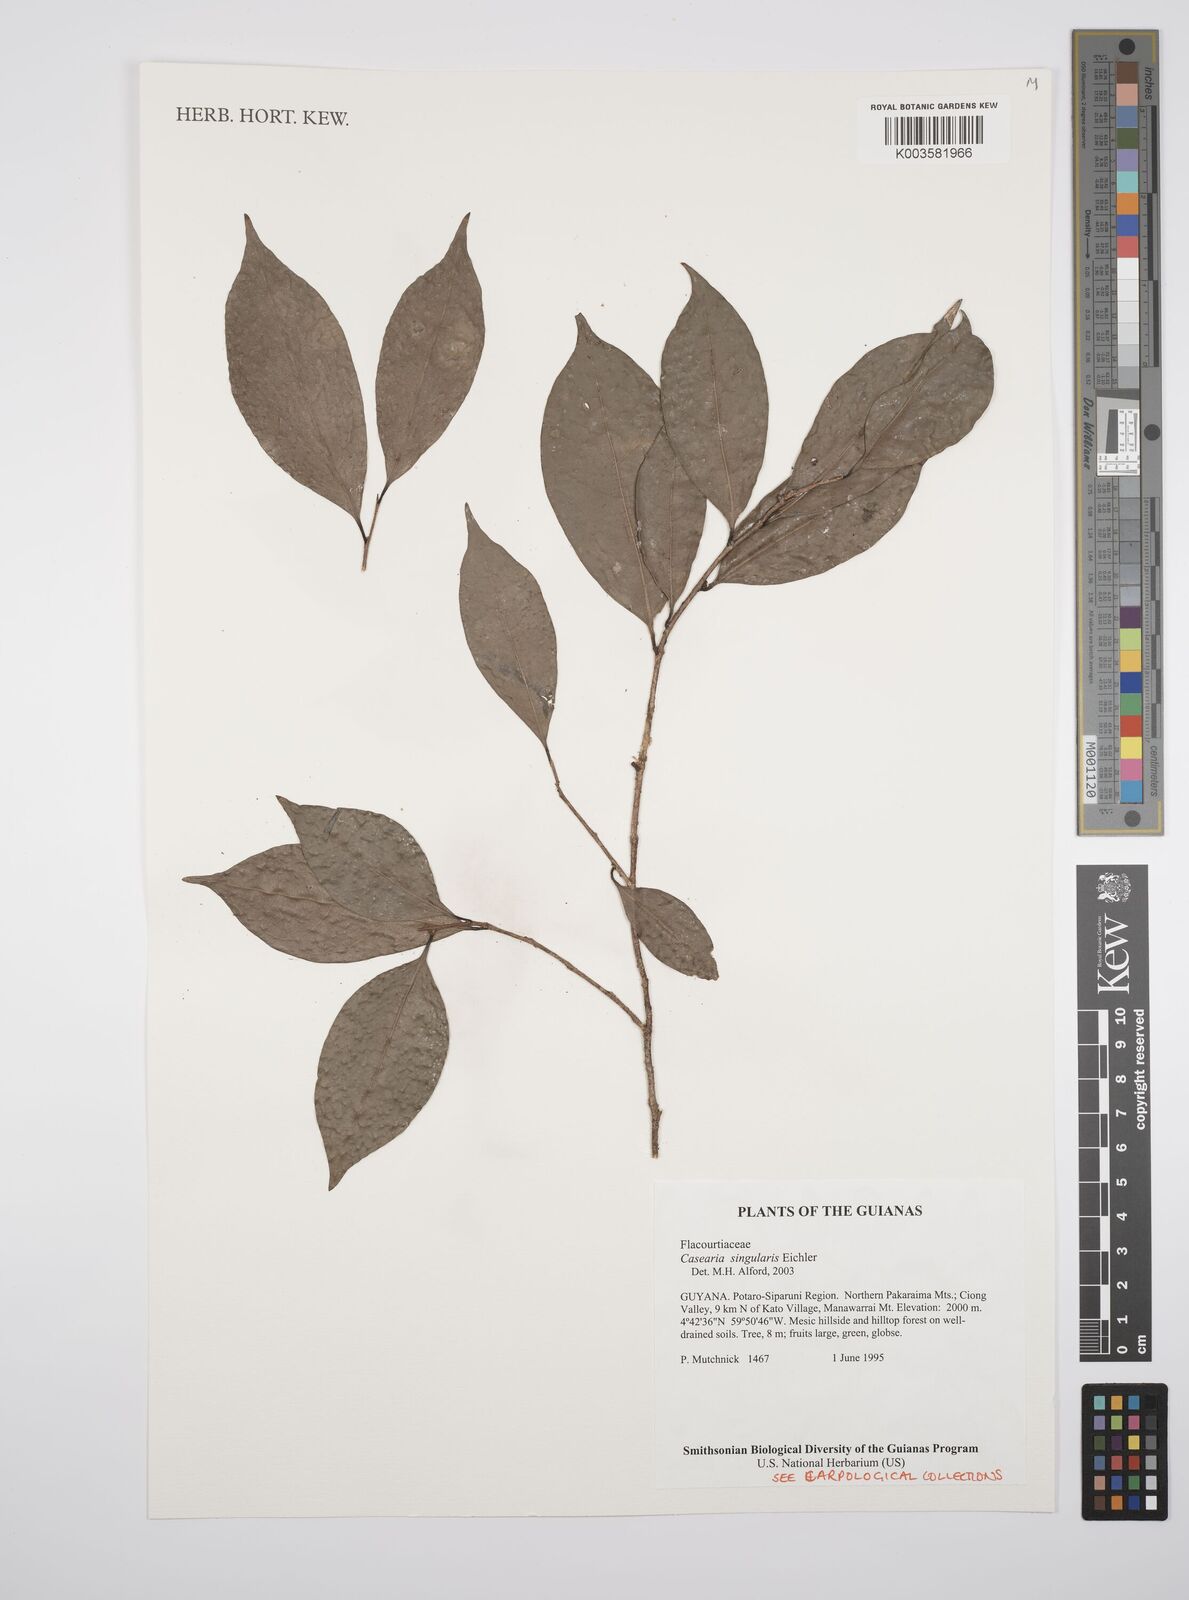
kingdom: Plantae
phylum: Tracheophyta
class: Magnoliopsida
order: Malpighiales
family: Salicaceae
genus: Casearia
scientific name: Casearia combaymensis
